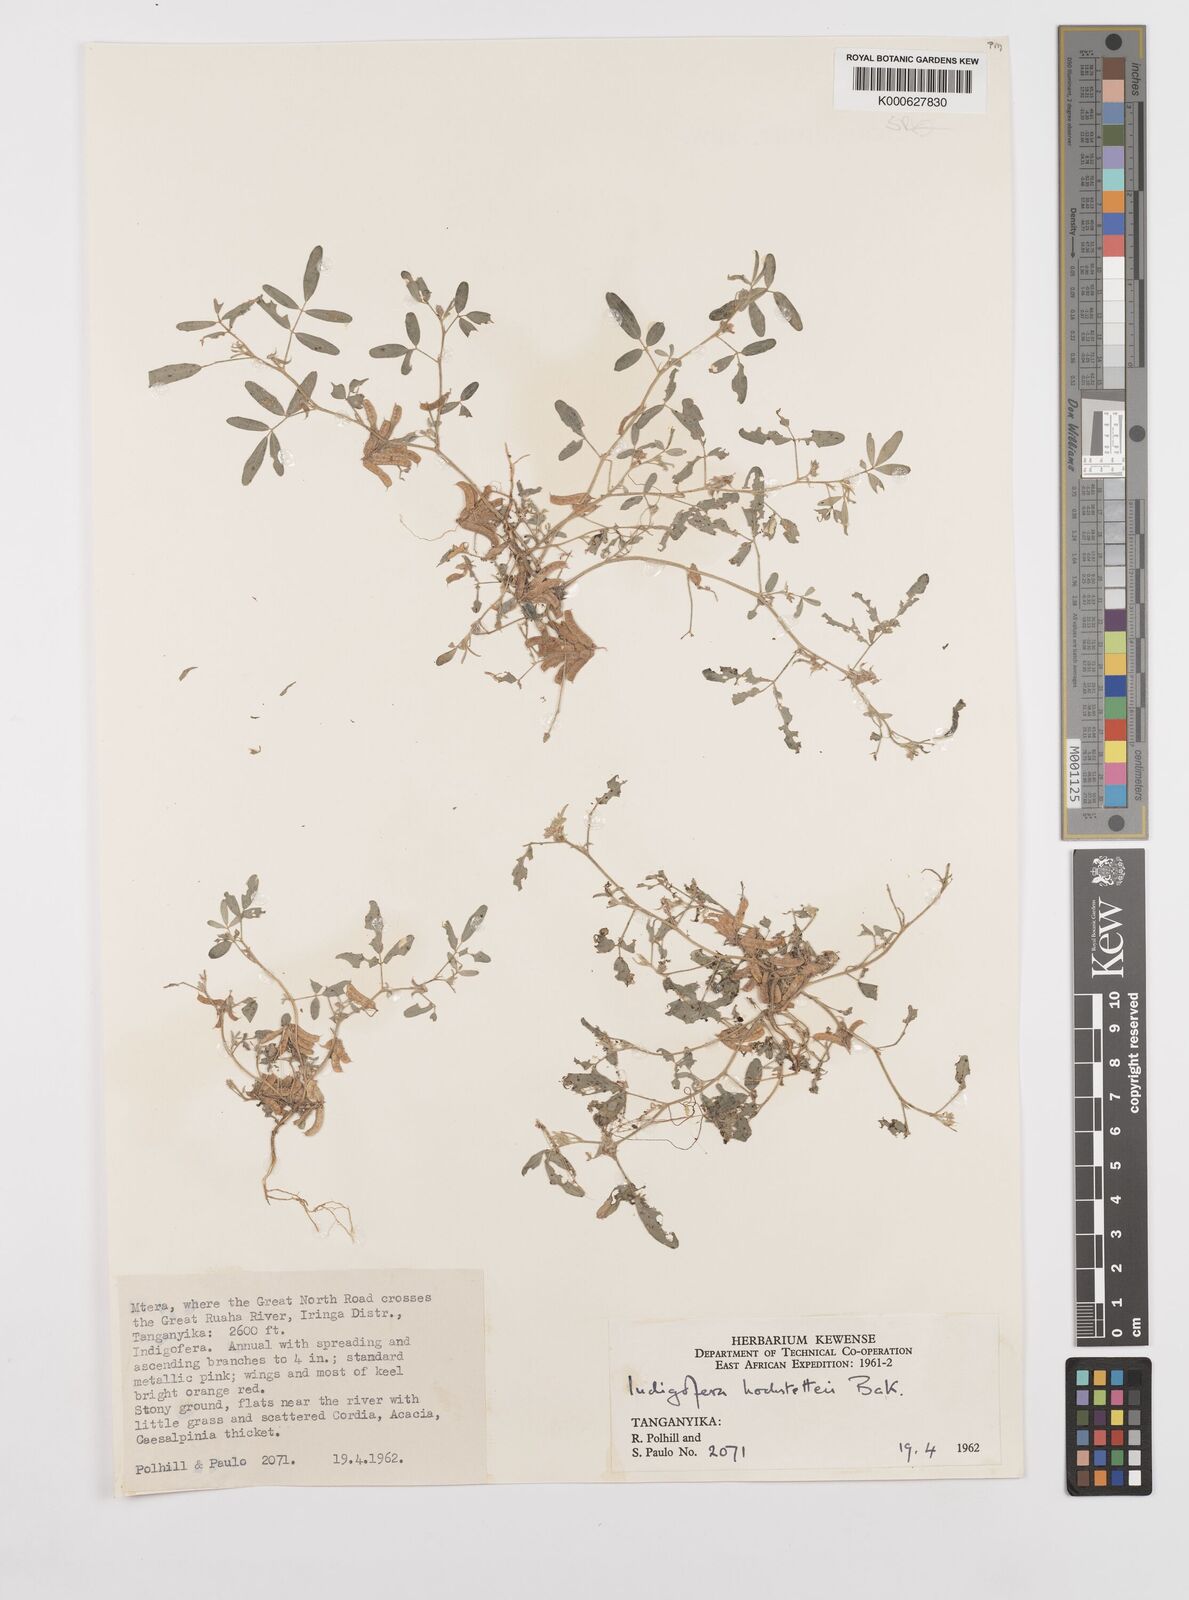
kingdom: Plantae
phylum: Tracheophyta
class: Magnoliopsida
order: Fabales
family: Fabaceae
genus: Indigofera
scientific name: Indigofera hochstetteri
